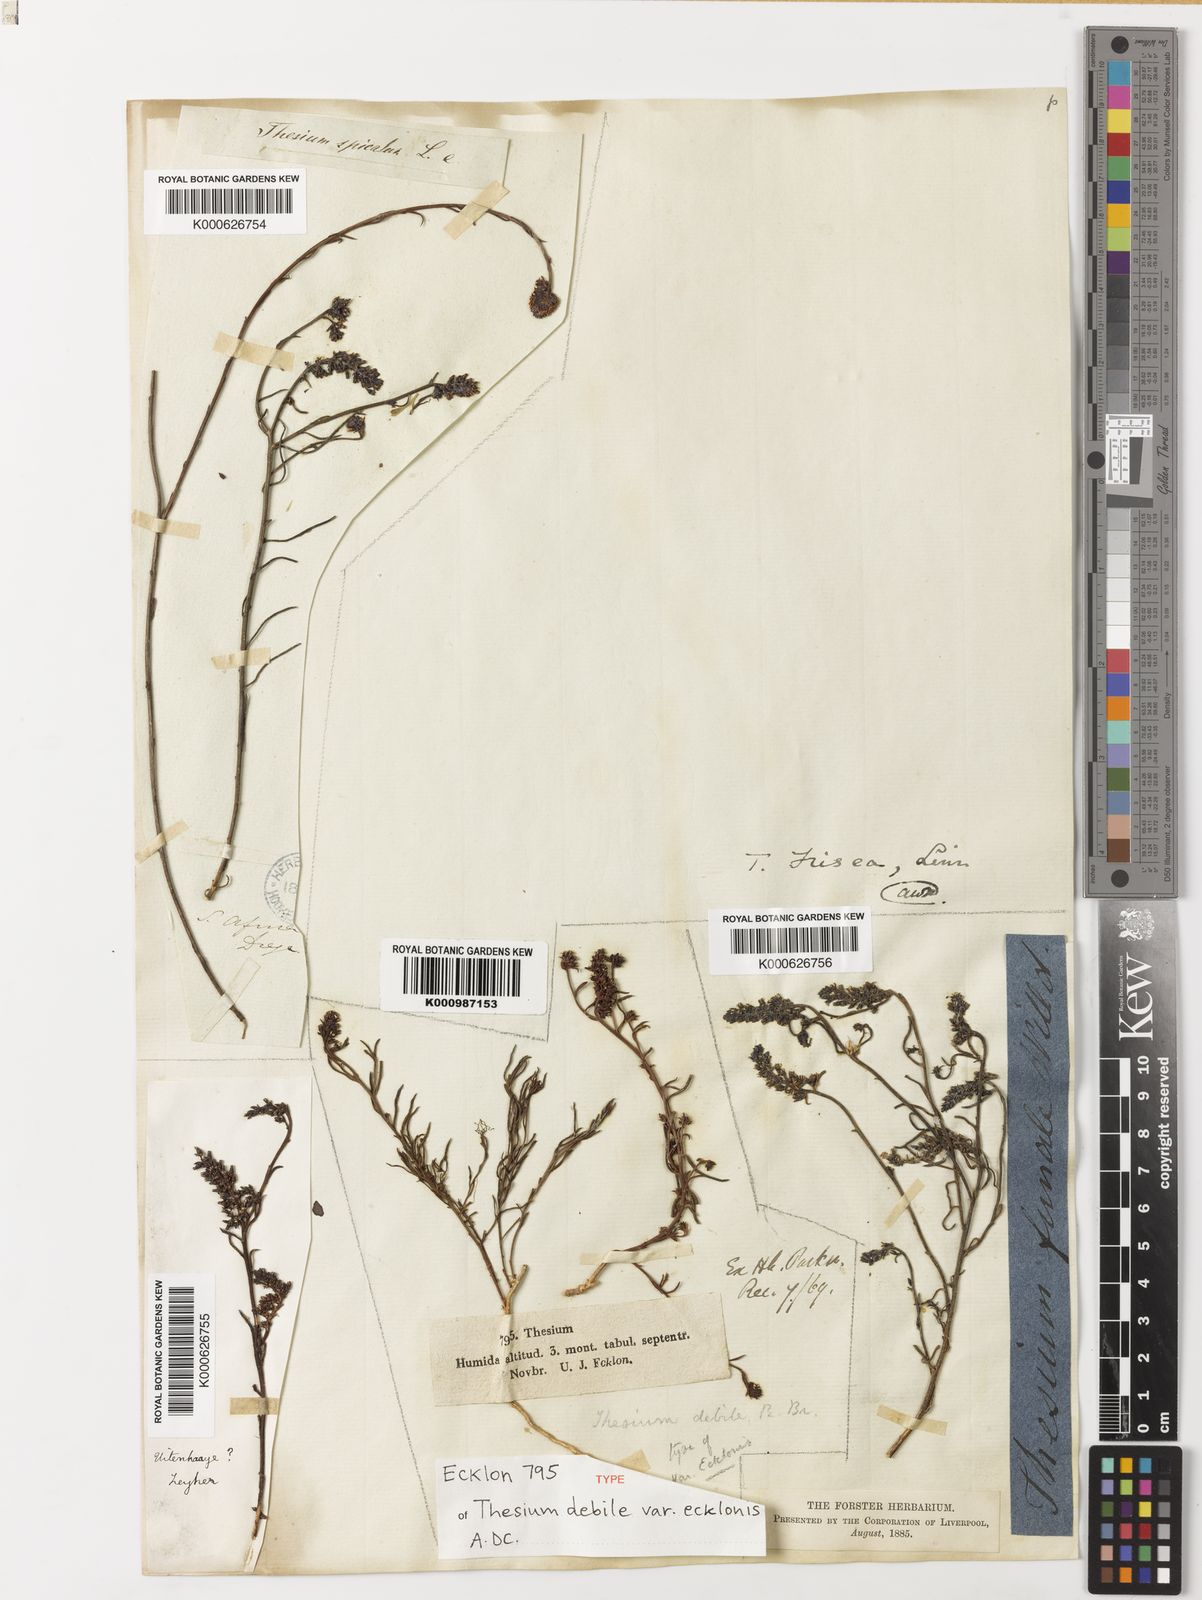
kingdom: Plantae
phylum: Tracheophyta
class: Magnoliopsida
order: Santalales
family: Thesiaceae
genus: Thesium
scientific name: Thesium frisea
